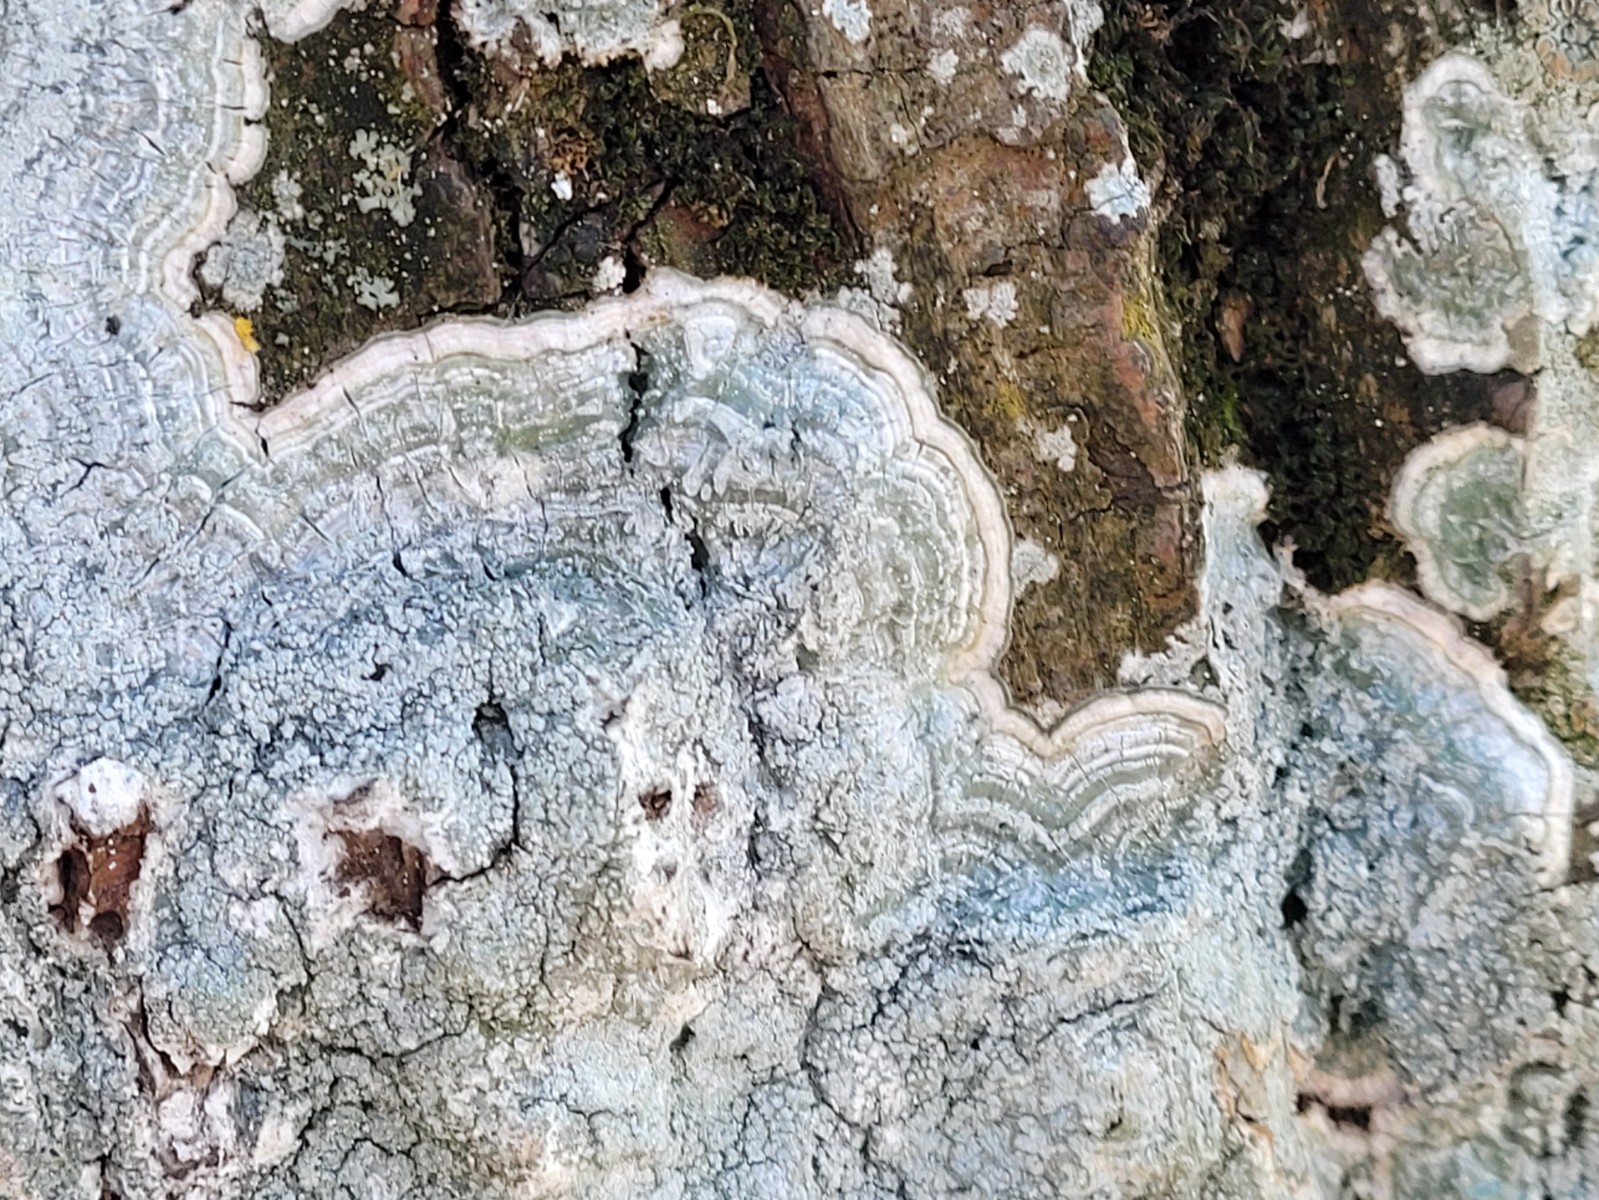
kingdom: Fungi
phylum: Ascomycota
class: Lecanoromycetes
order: Pertusariales
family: Pertusariaceae
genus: Lepra
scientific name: Lepra albescens
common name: hvidmelet prikvortelav
